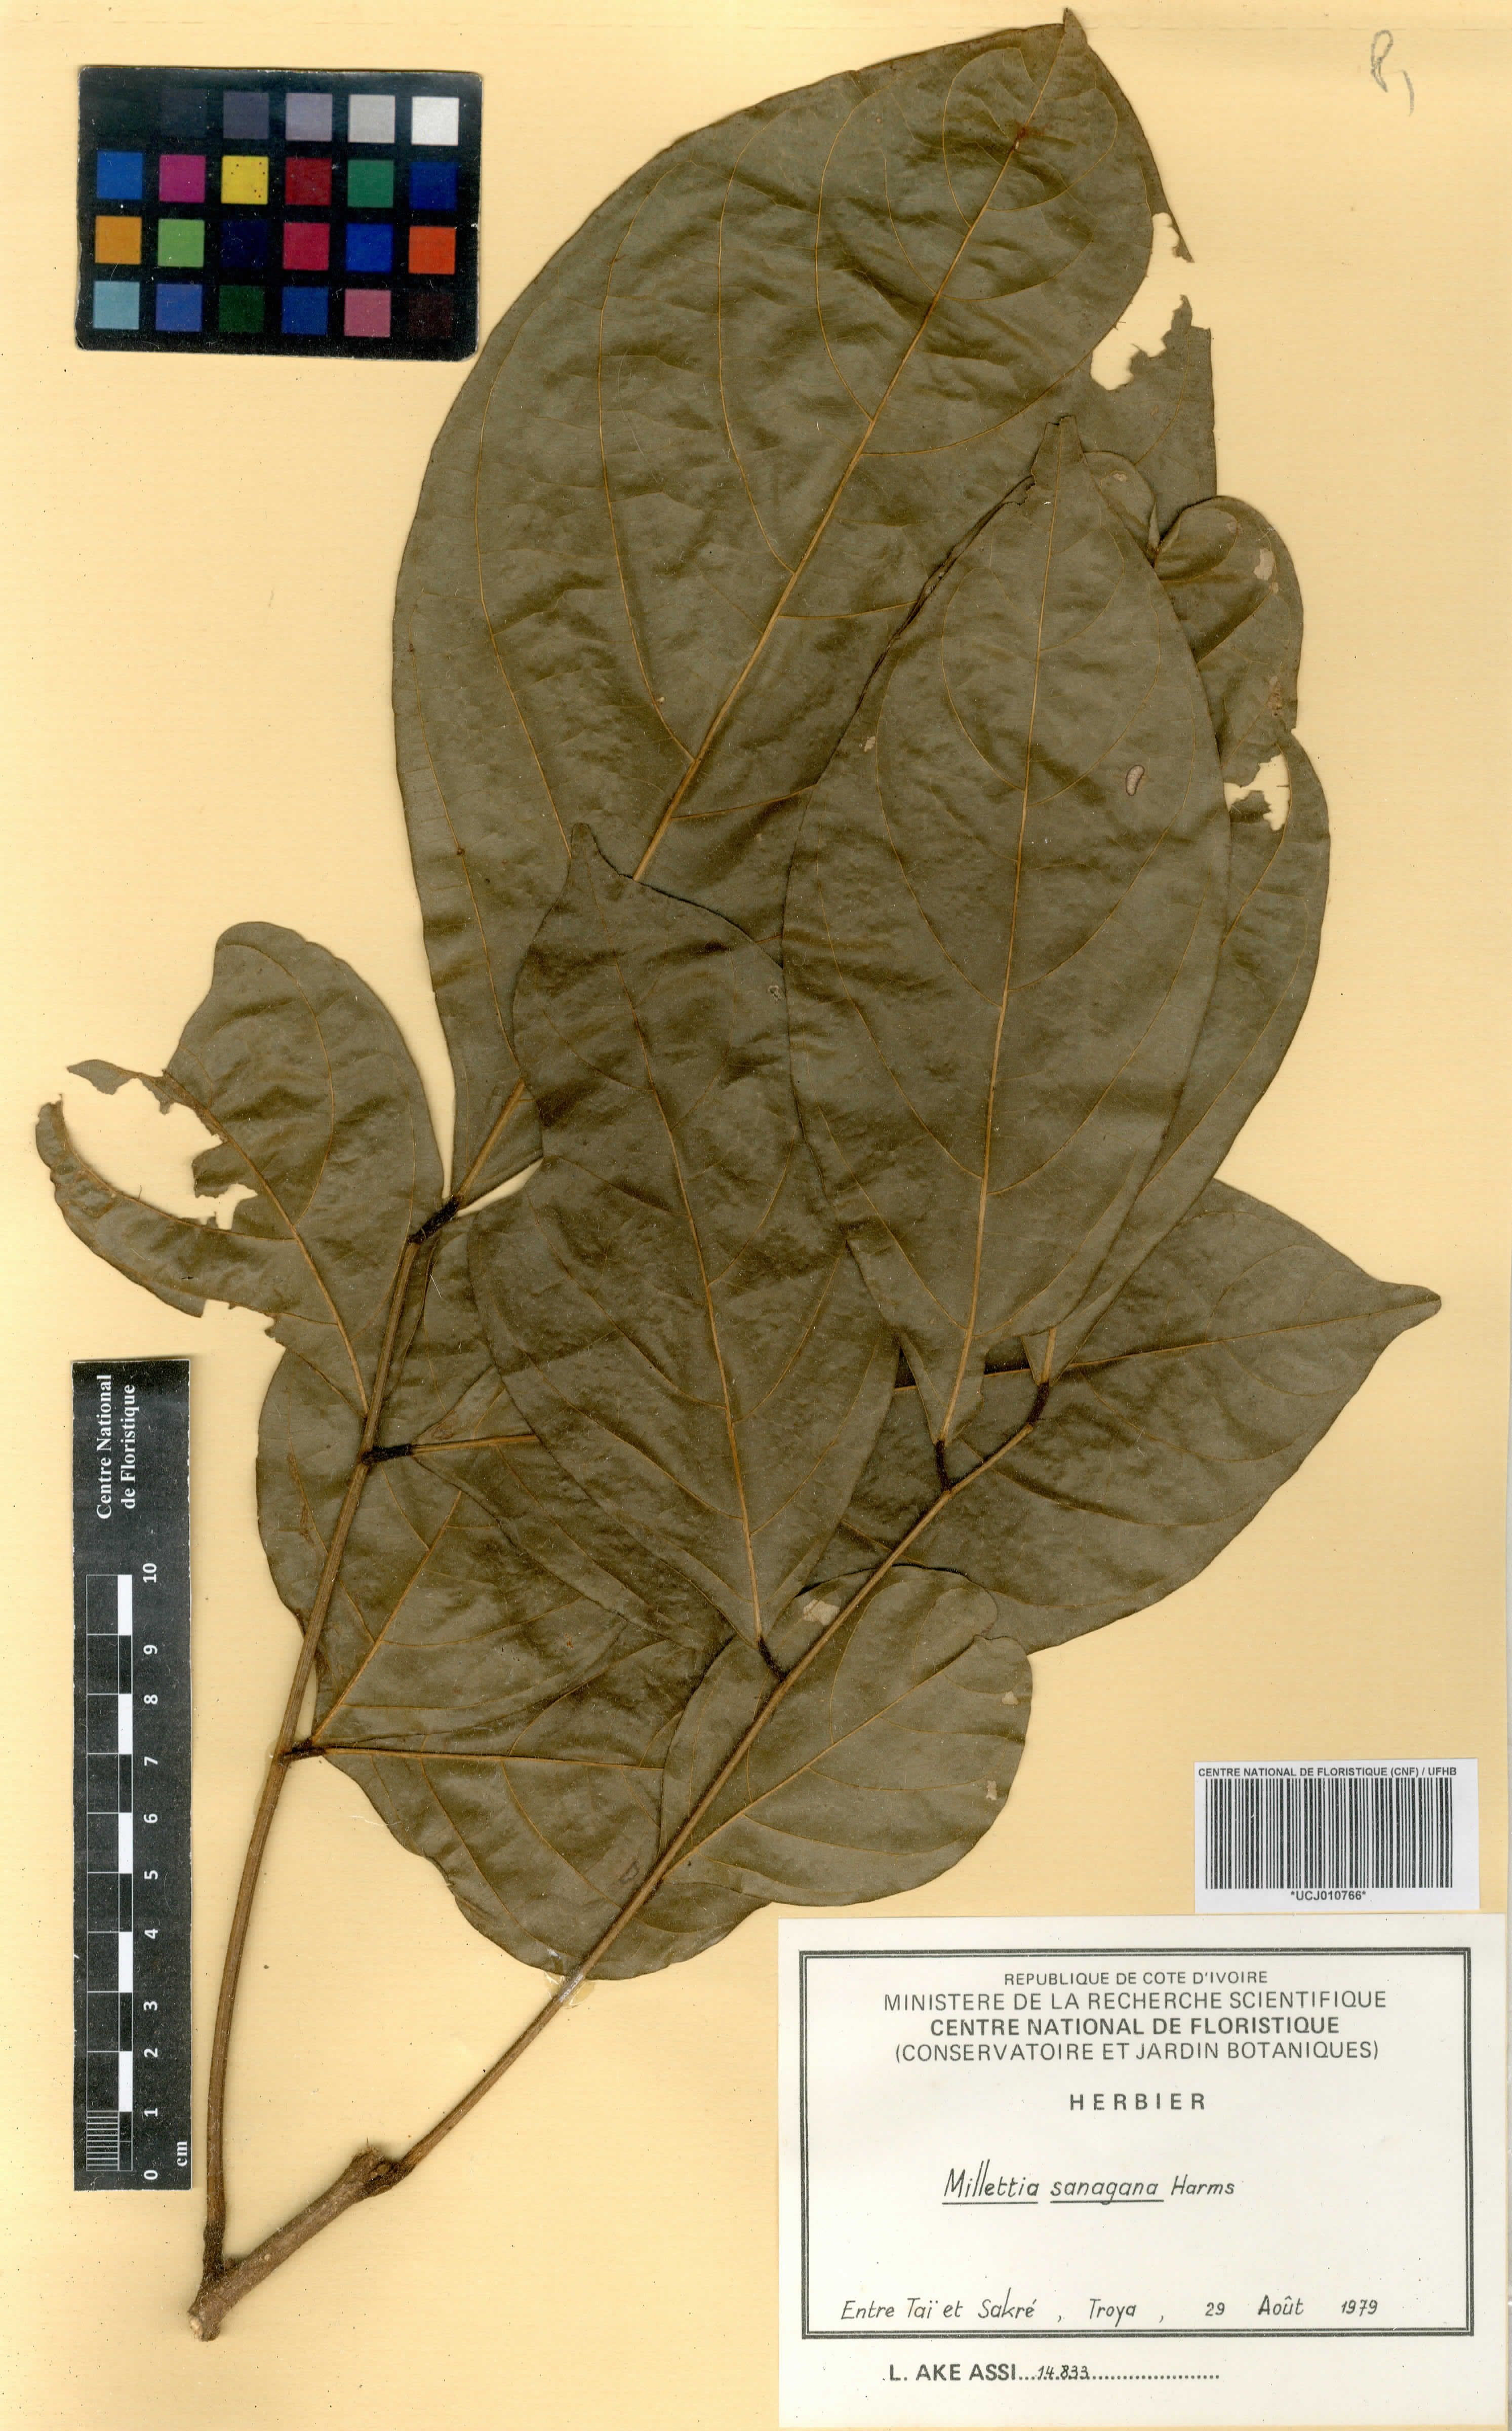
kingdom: Plantae
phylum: Tracheophyta
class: Magnoliopsida
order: Fabales
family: Fabaceae
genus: Millettia
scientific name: Millettia sanagana
